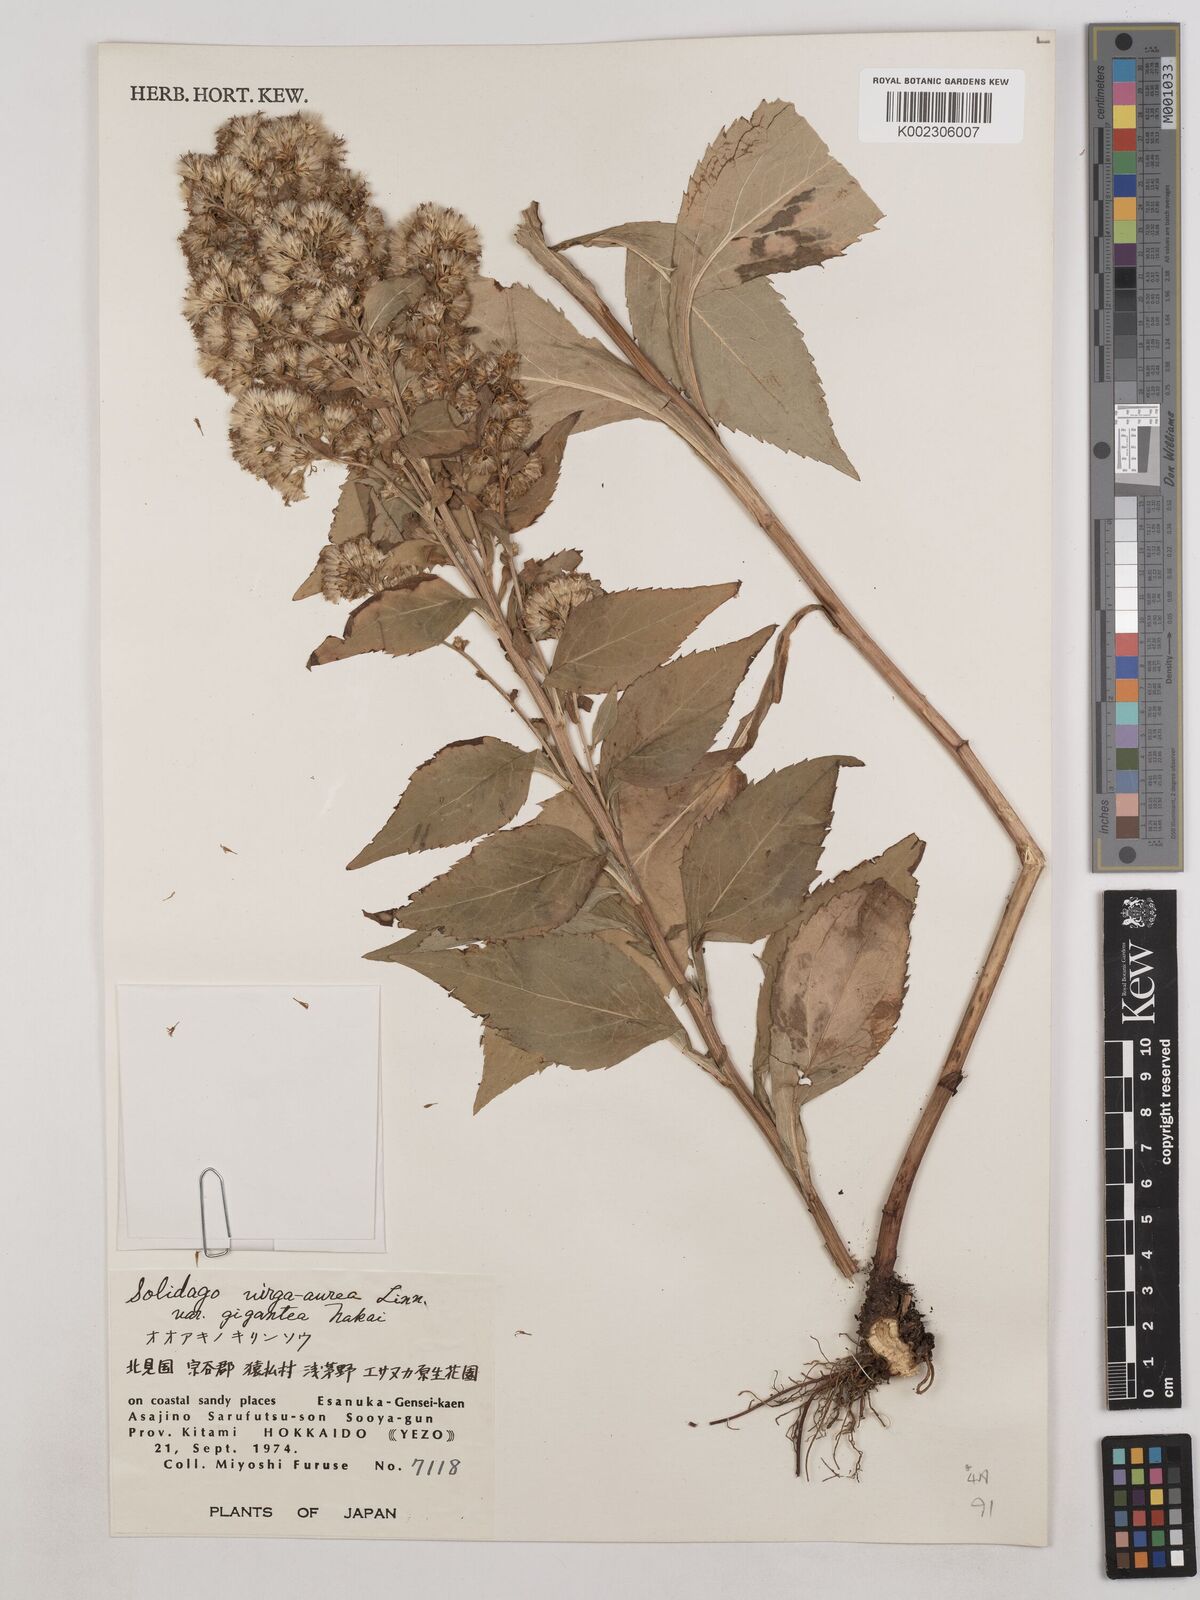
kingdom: Plantae
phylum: Tracheophyta
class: Magnoliopsida
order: Asterales
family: Asteraceae
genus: Solidago
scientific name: Solidago nipponica
